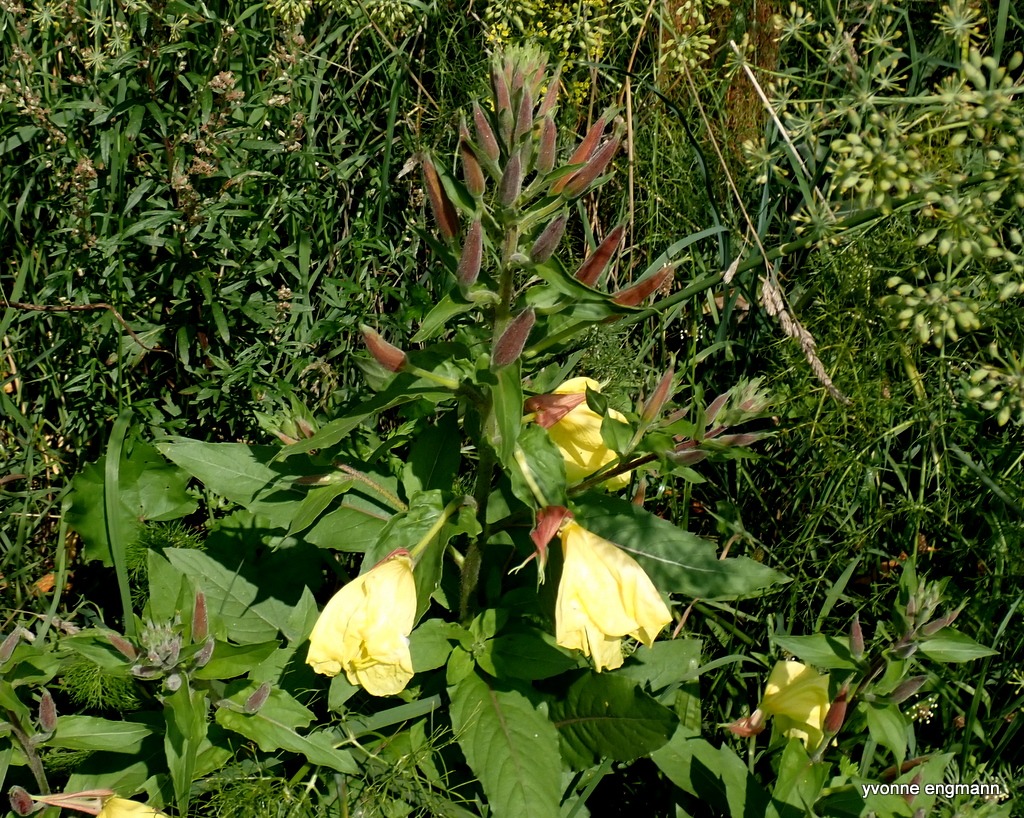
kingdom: Plantae
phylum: Tracheophyta
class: Magnoliopsida
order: Myrtales
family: Onagraceae
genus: Oenothera
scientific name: Oenothera glazioviana
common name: Kæmpe-natlys
